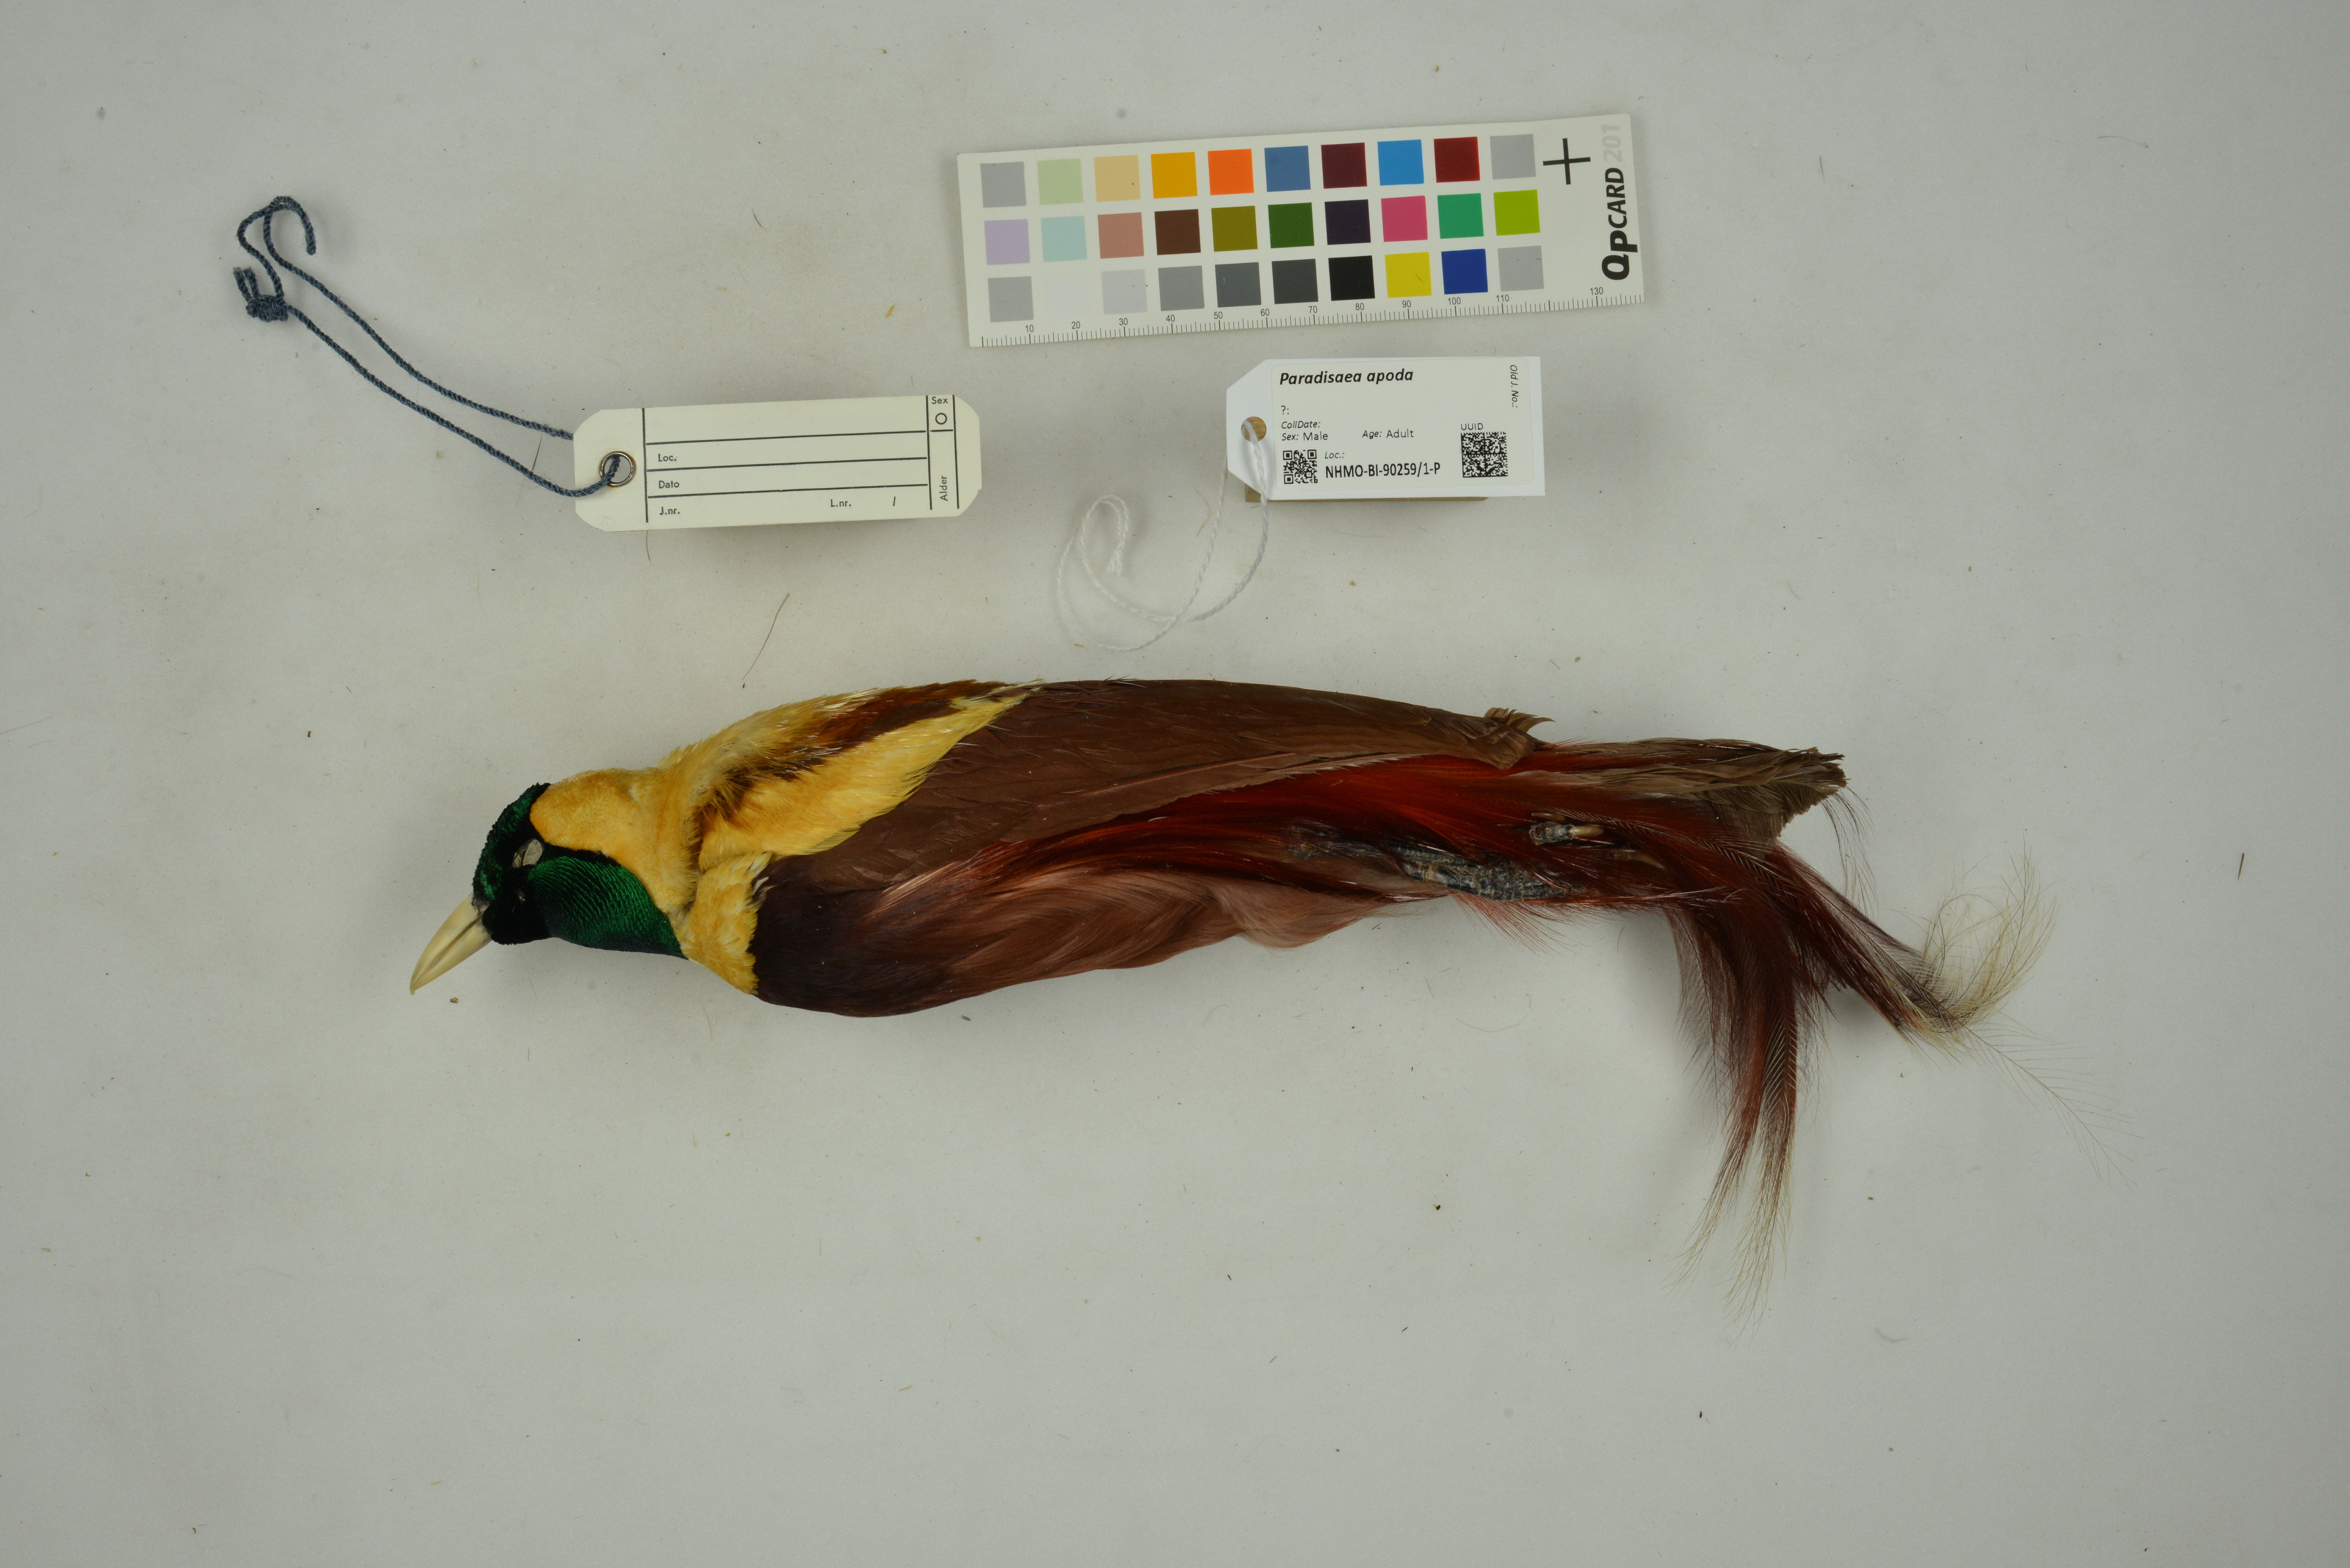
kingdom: Animalia
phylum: Chordata
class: Aves
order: Passeriformes
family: Paradisaeidae
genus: Paradisaea
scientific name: Paradisaea apoda
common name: Greater bird-of-paradise
